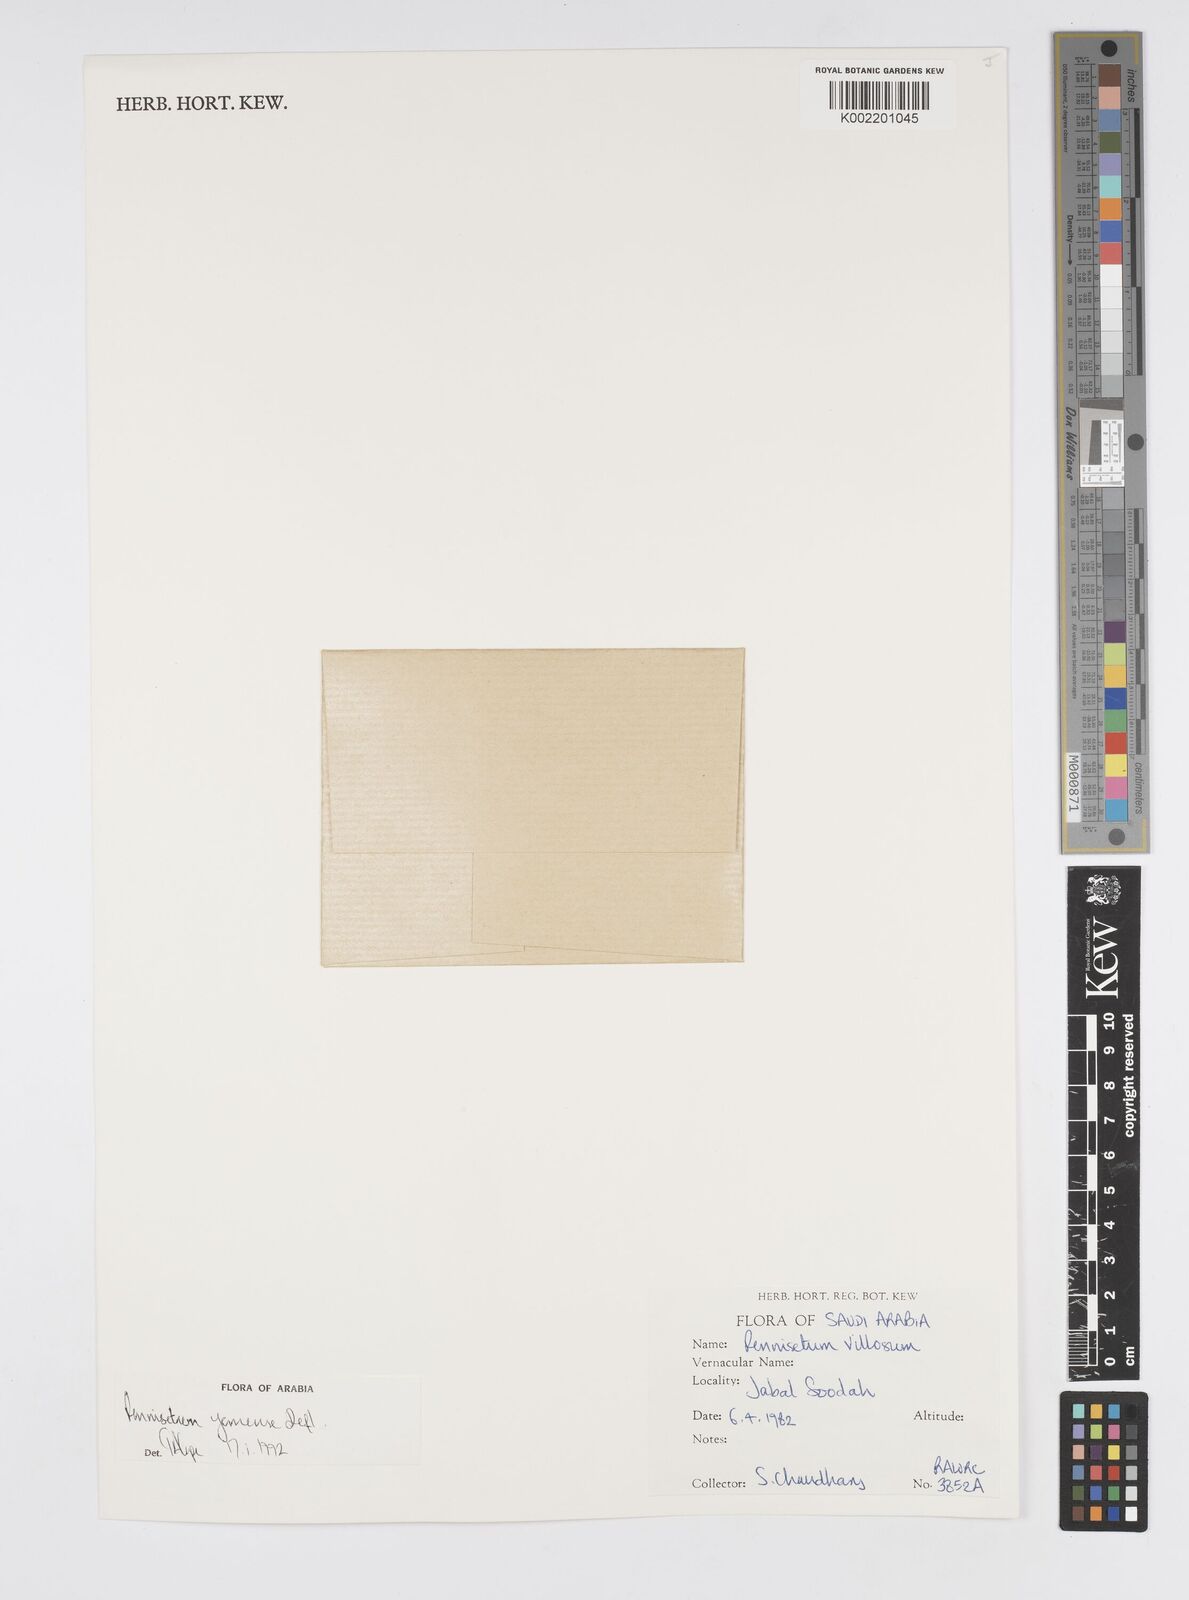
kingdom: Plantae
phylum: Tracheophyta
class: Liliopsida
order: Poales
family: Poaceae
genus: Cenchrus
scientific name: Cenchrus yemensis
